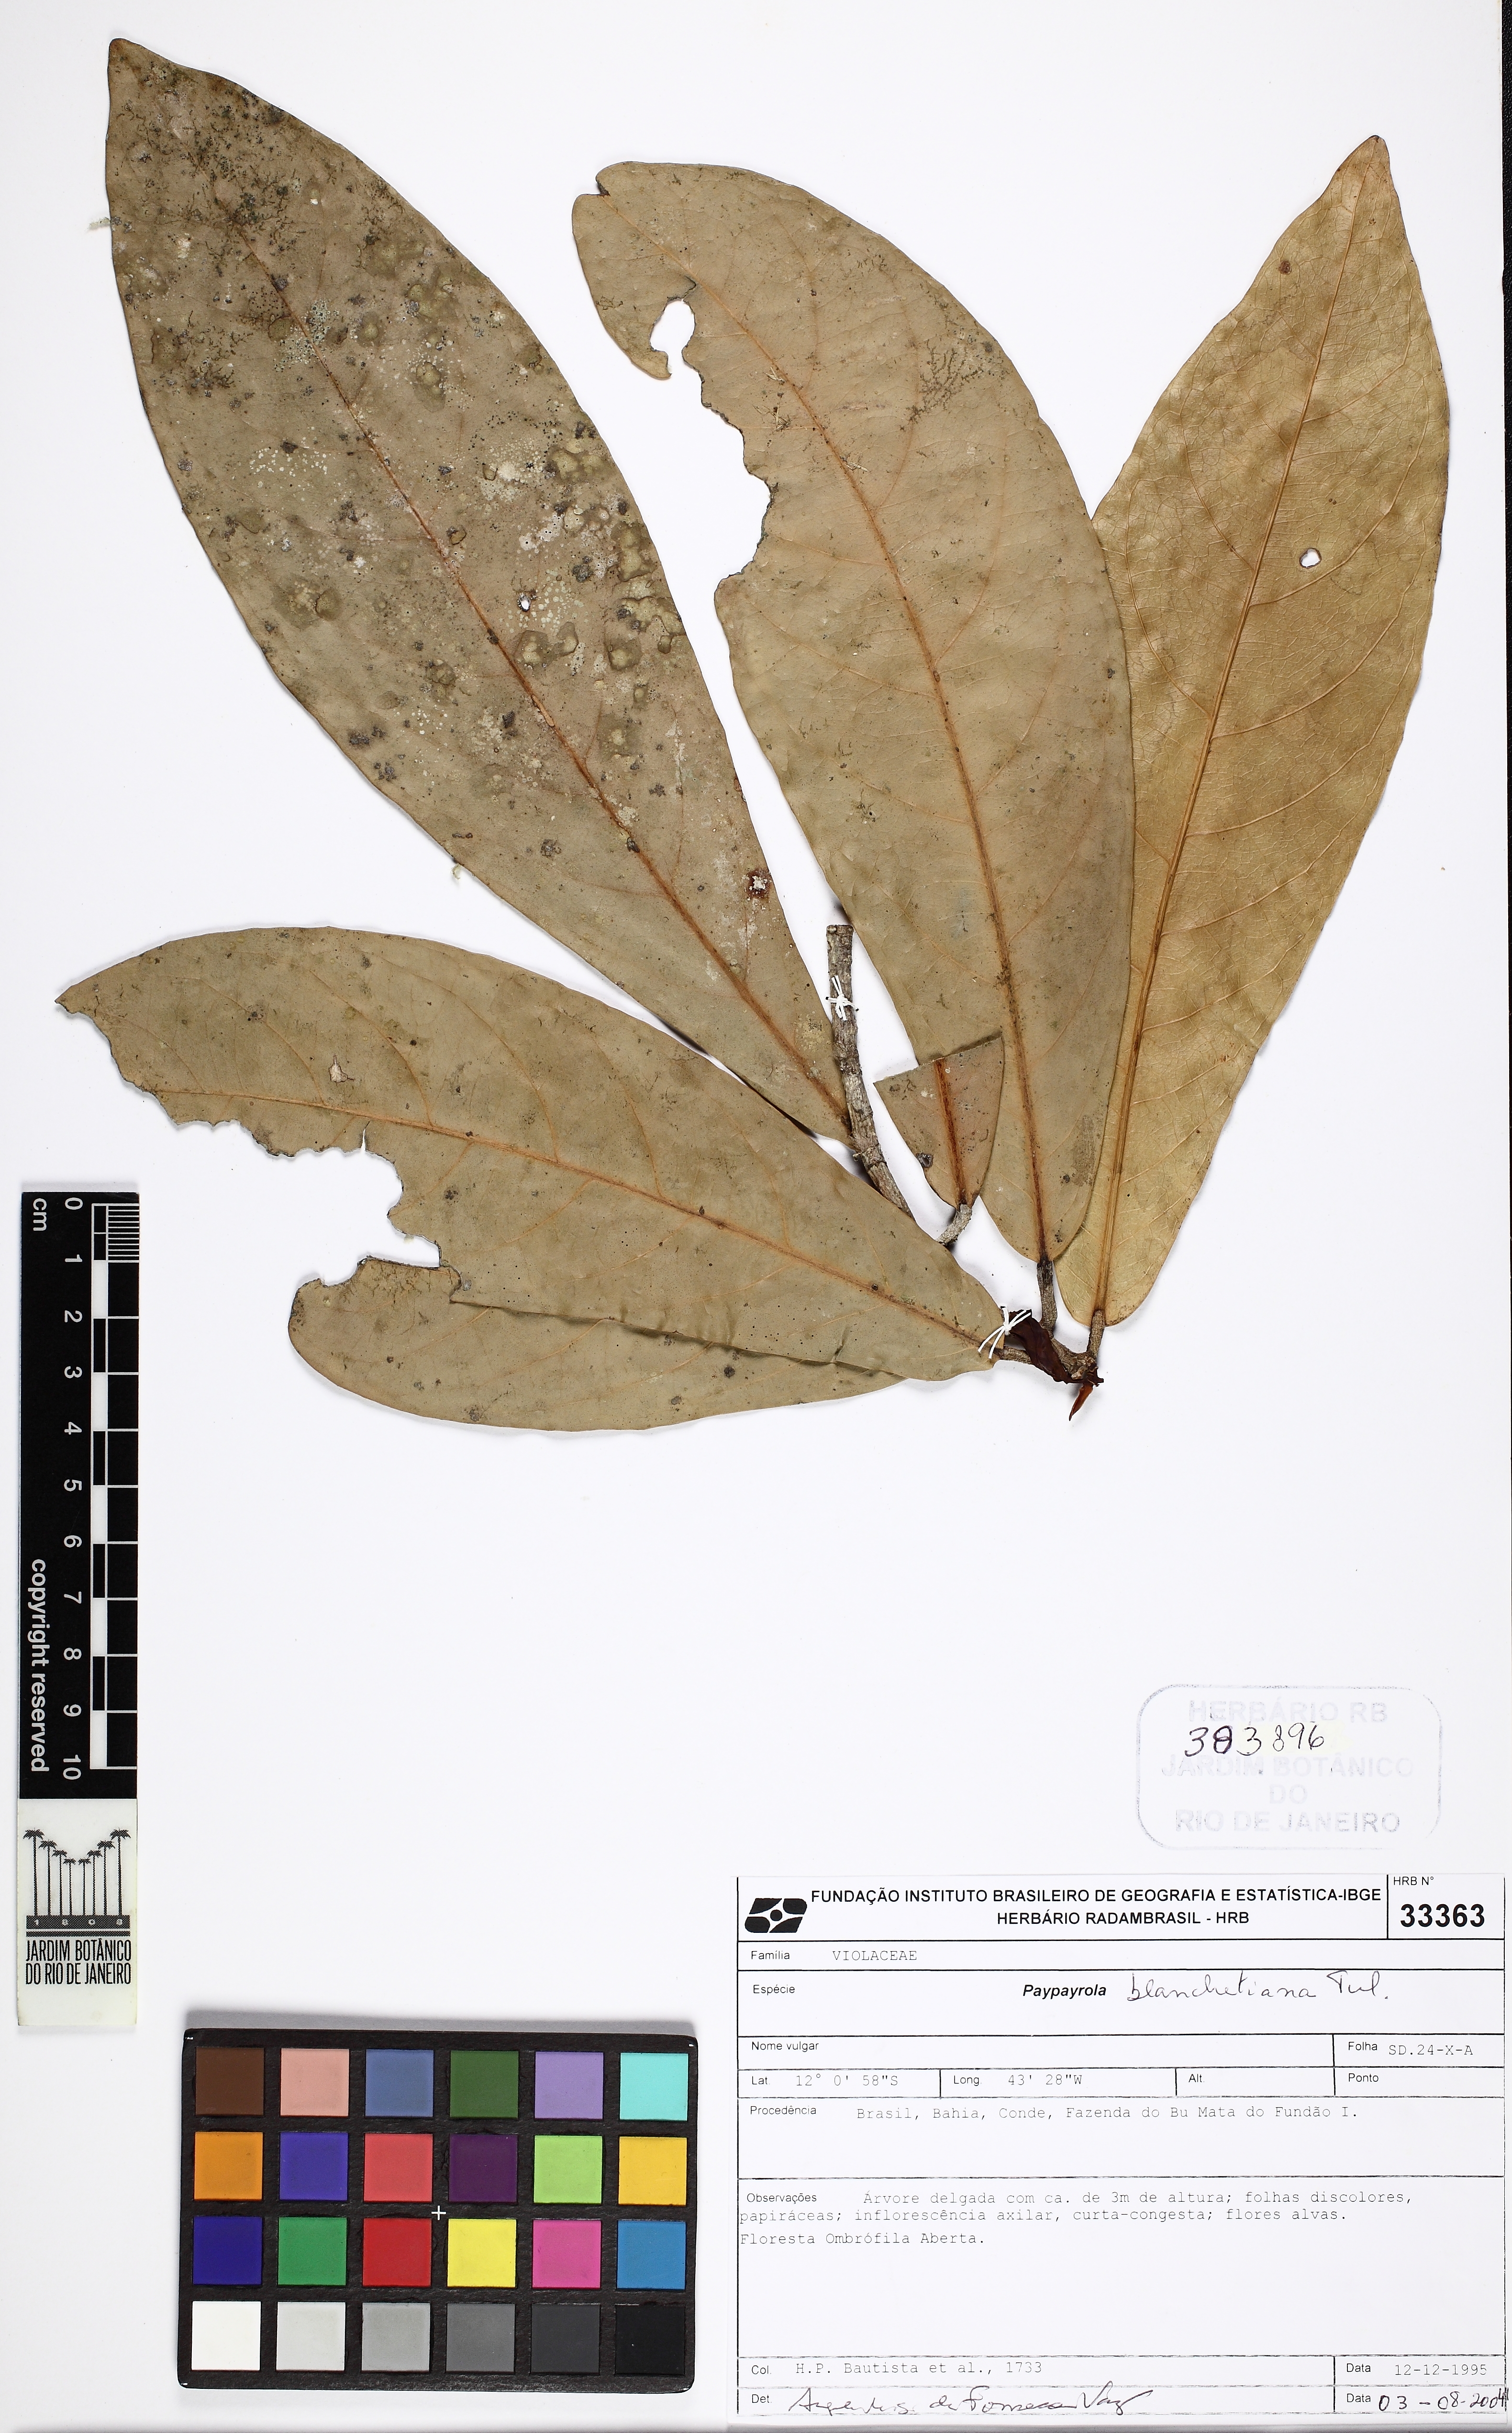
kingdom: Plantae
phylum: Tracheophyta
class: Magnoliopsida
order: Malpighiales
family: Violaceae
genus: Paypayrola
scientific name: Paypayrola blanchetiana
